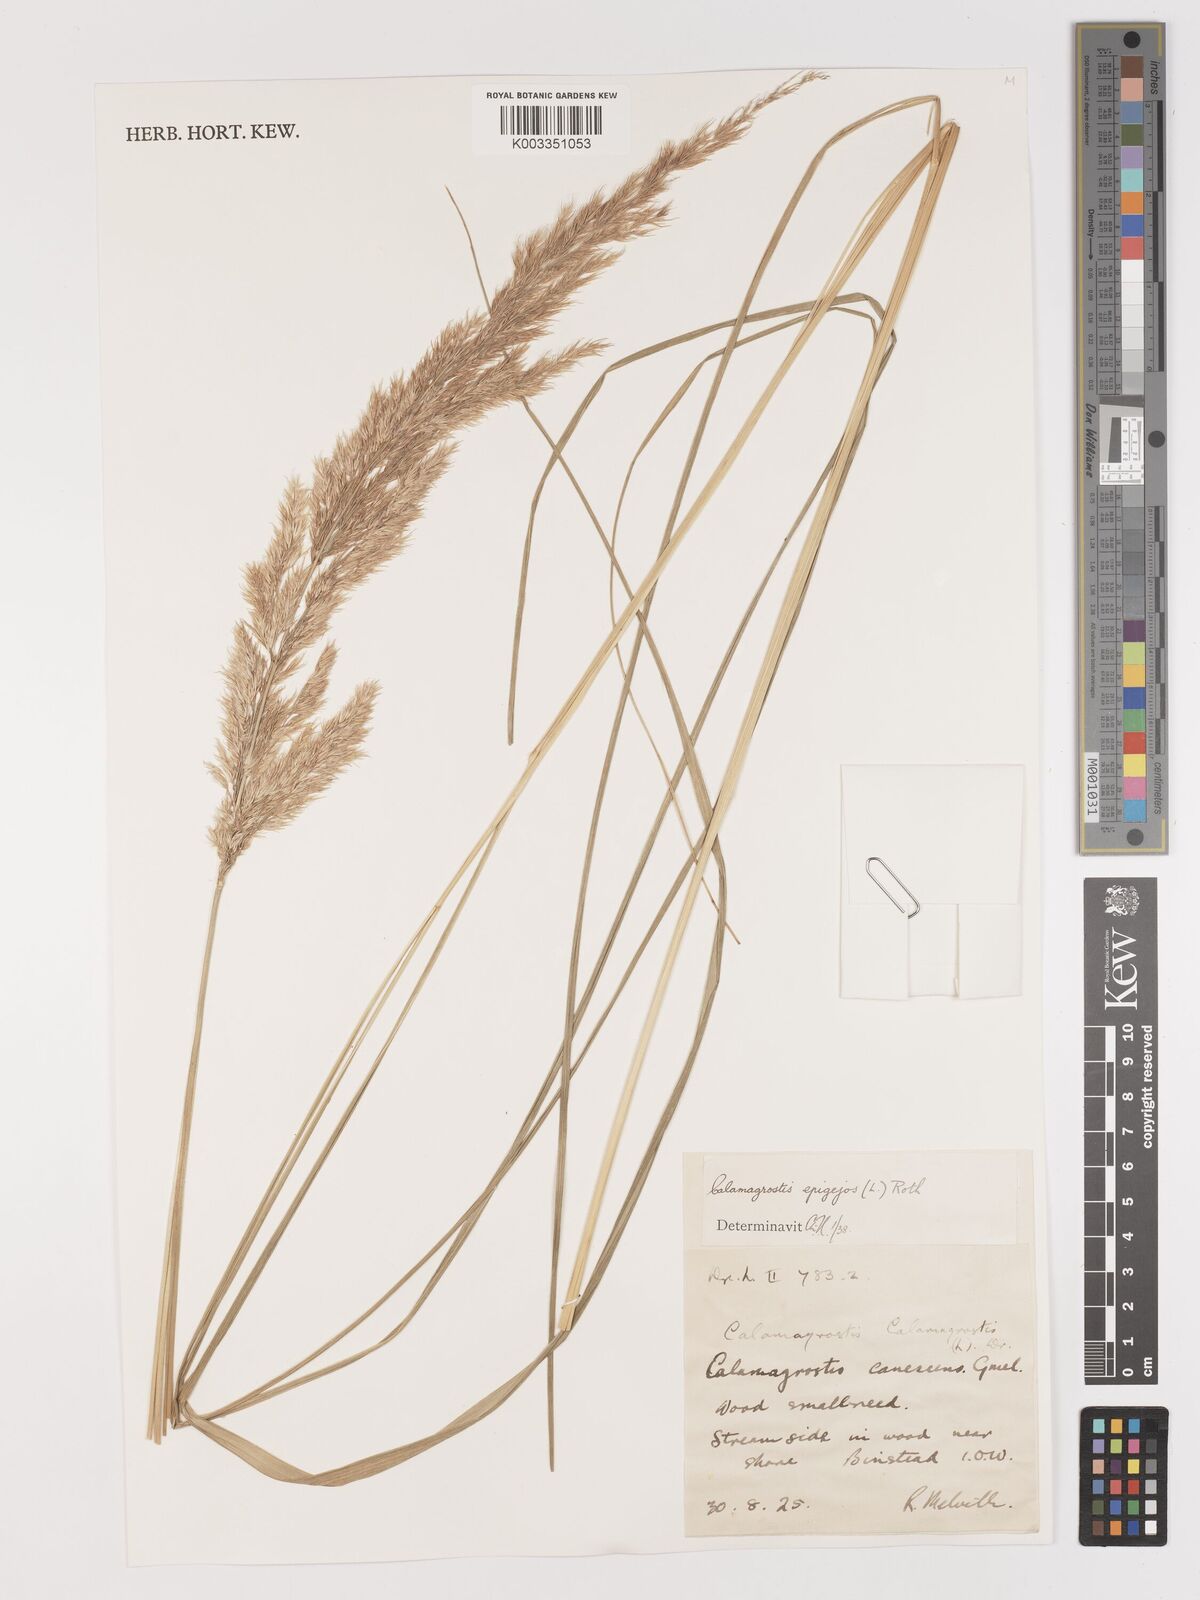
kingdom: Plantae
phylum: Tracheophyta
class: Liliopsida
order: Poales
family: Poaceae
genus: Calamagrostis
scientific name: Calamagrostis epigejos
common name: Wood small-reed
